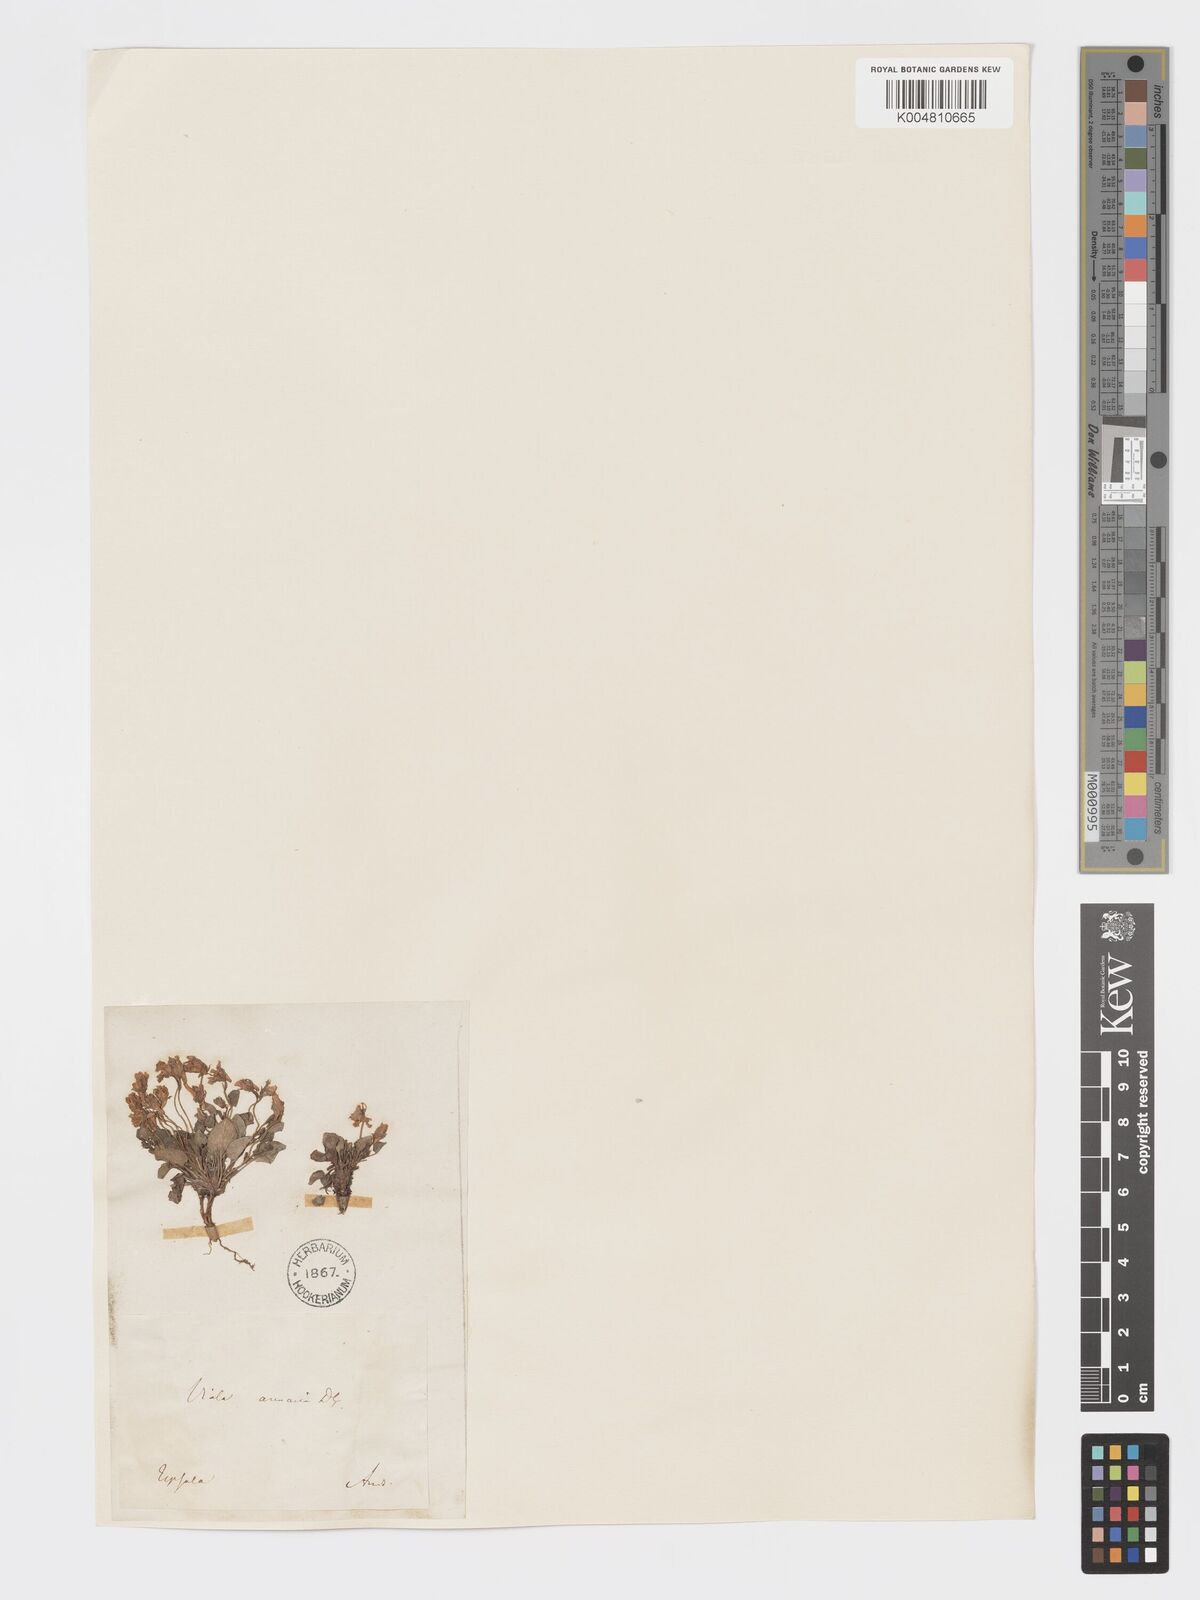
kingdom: Plantae
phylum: Tracheophyta
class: Magnoliopsida
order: Malpighiales
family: Violaceae
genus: Viola
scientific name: Viola rupestris
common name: Teesdale violet
